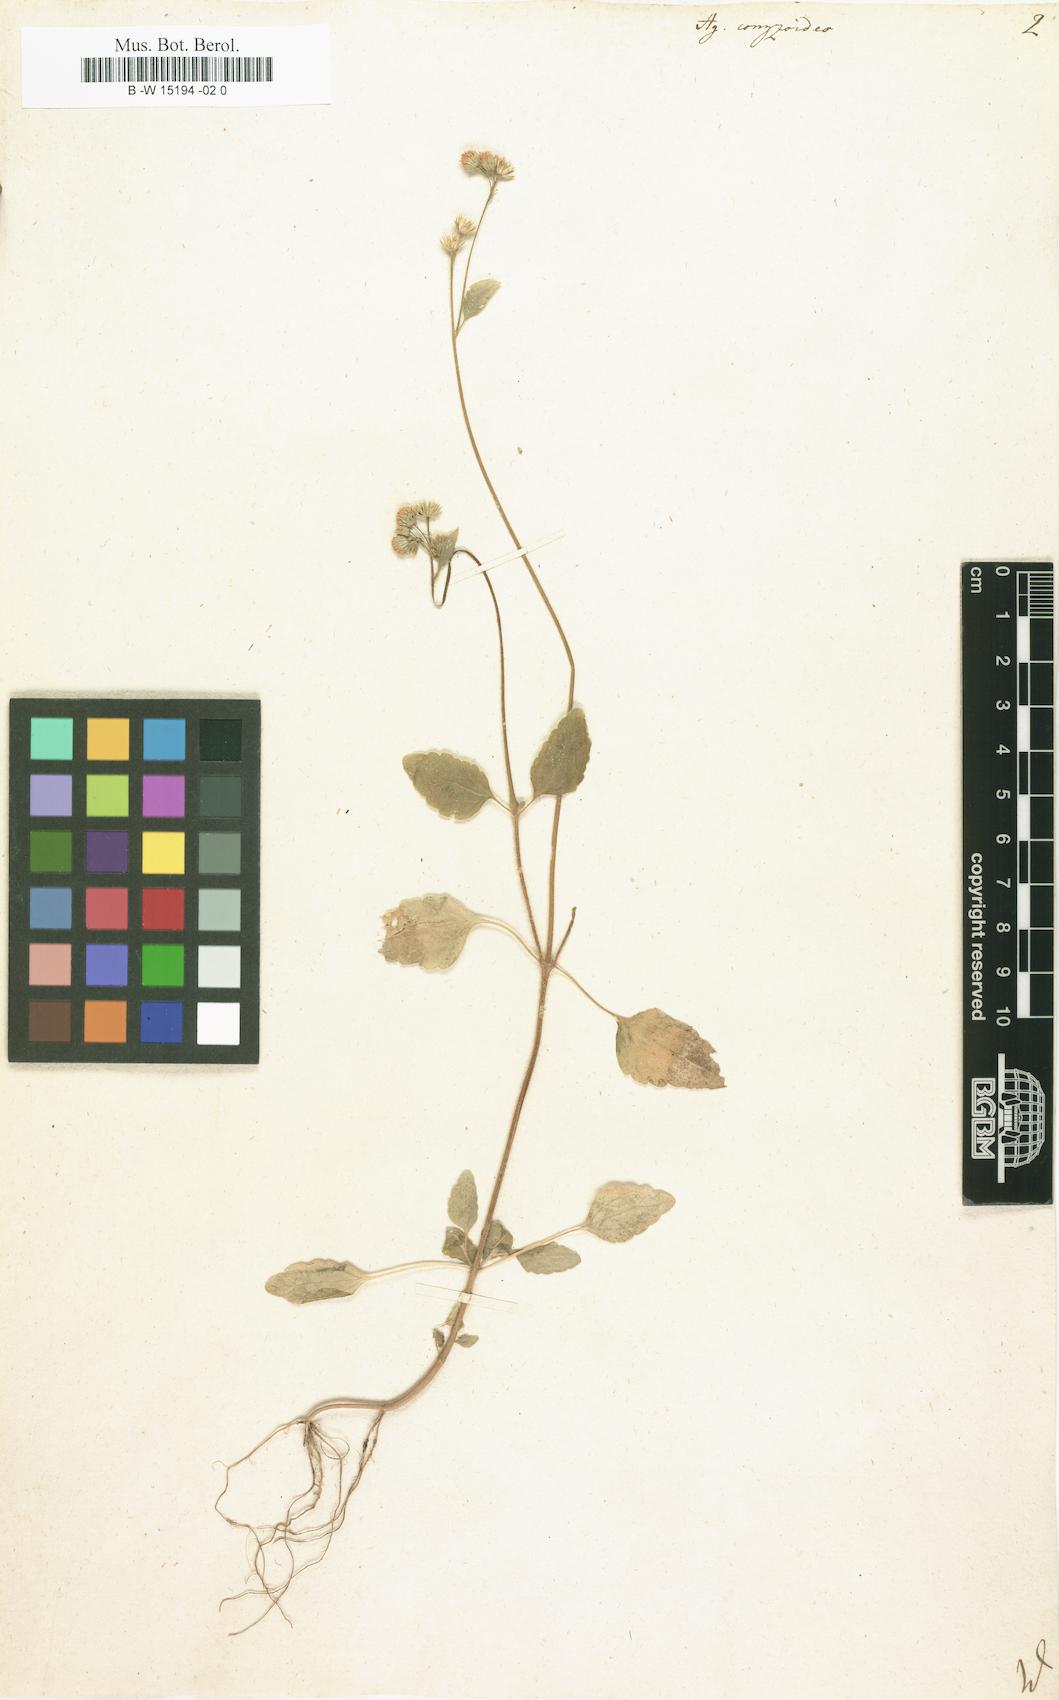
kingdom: Plantae
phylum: Tracheophyta
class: Magnoliopsida
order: Asterales
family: Asteraceae
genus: Ageratum
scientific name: Ageratum conyzoides
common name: Tropical whiteweed
